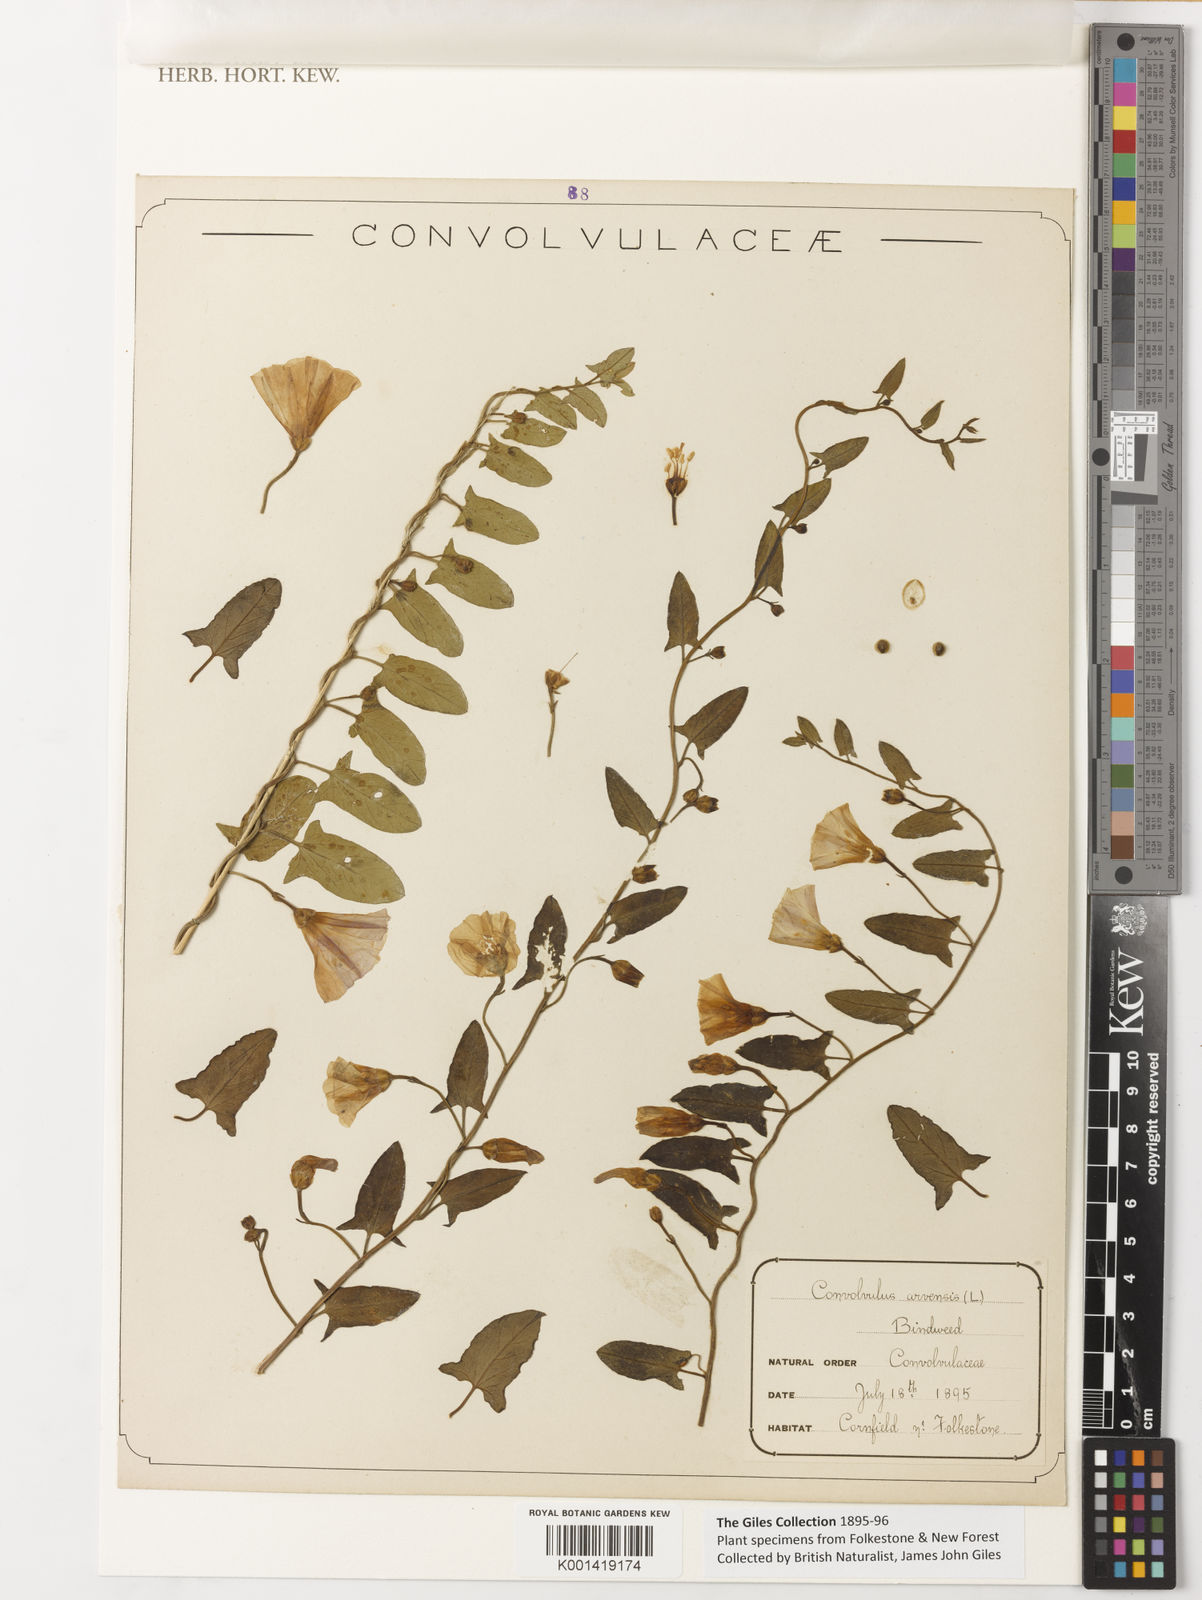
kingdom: Plantae
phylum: Tracheophyta
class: Magnoliopsida
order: Solanales
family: Convolvulaceae
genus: Convolvulus
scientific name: Convolvulus arvensis
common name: Field bindweed
